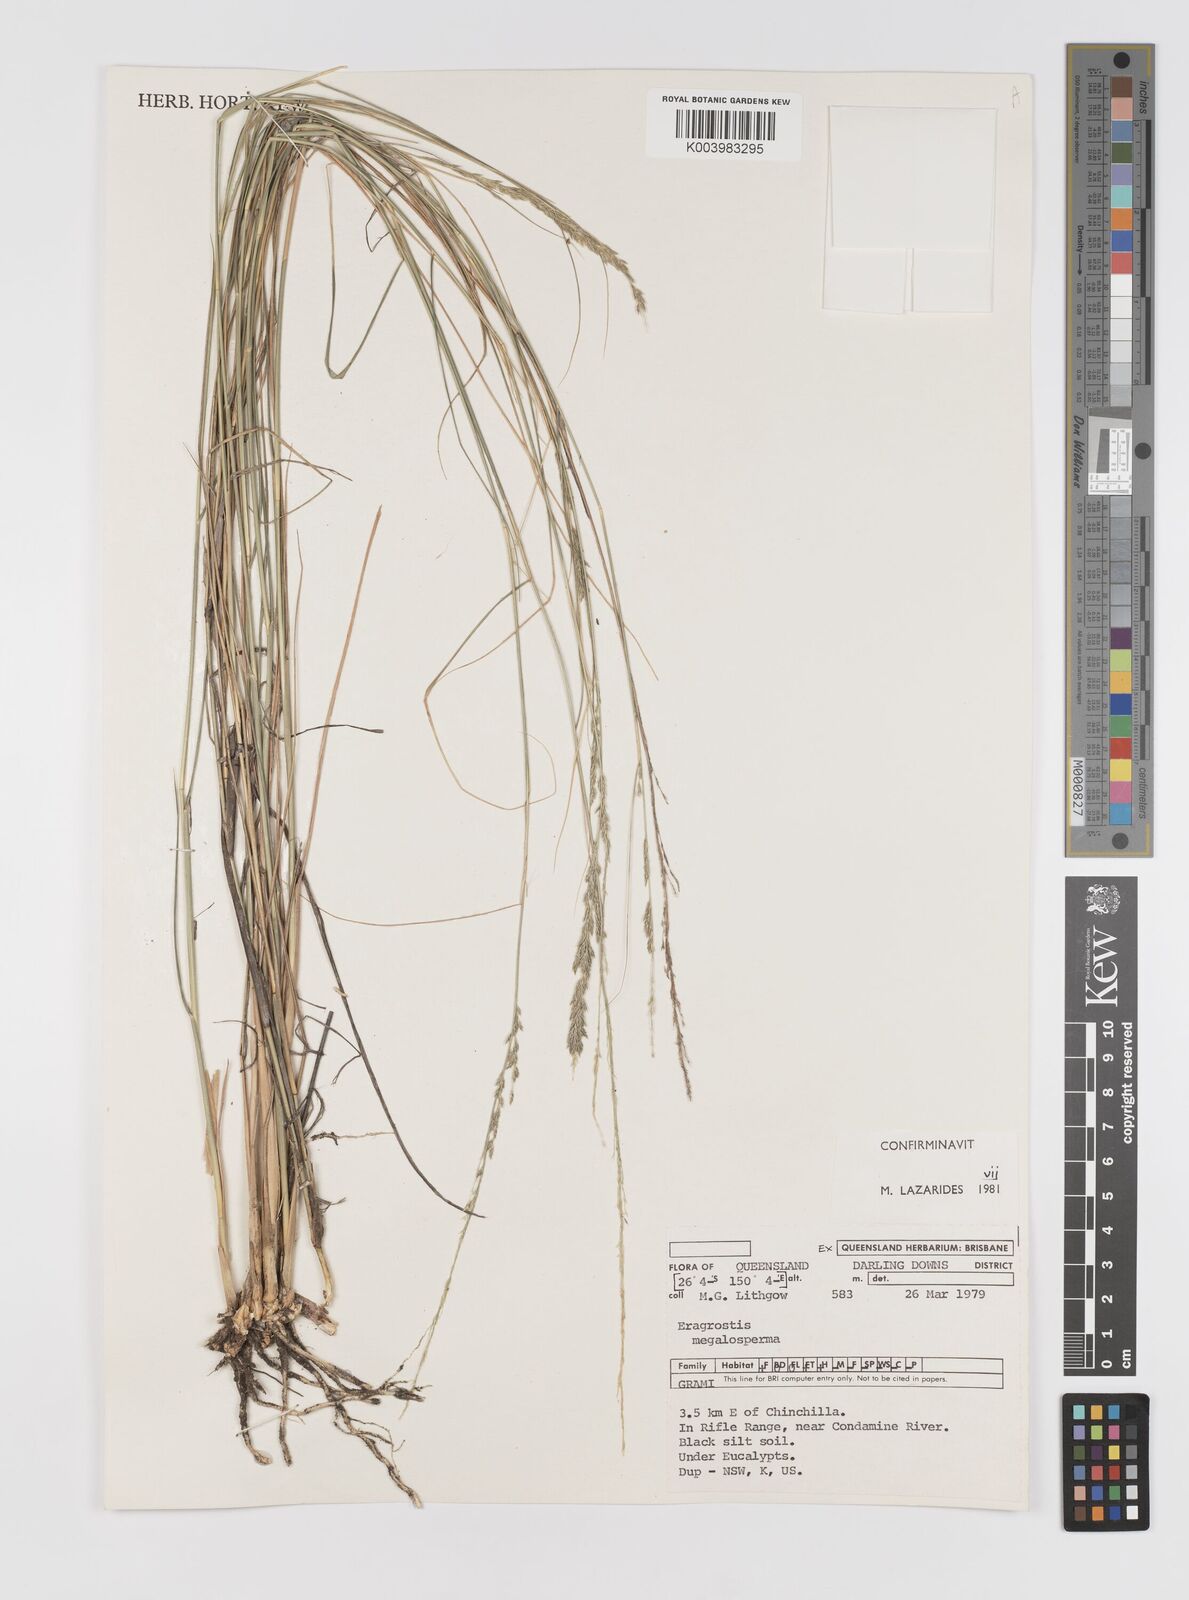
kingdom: Plantae
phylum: Tracheophyta
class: Liliopsida
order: Poales
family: Poaceae
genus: Sporobolus
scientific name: Sporobolus megalospermus
